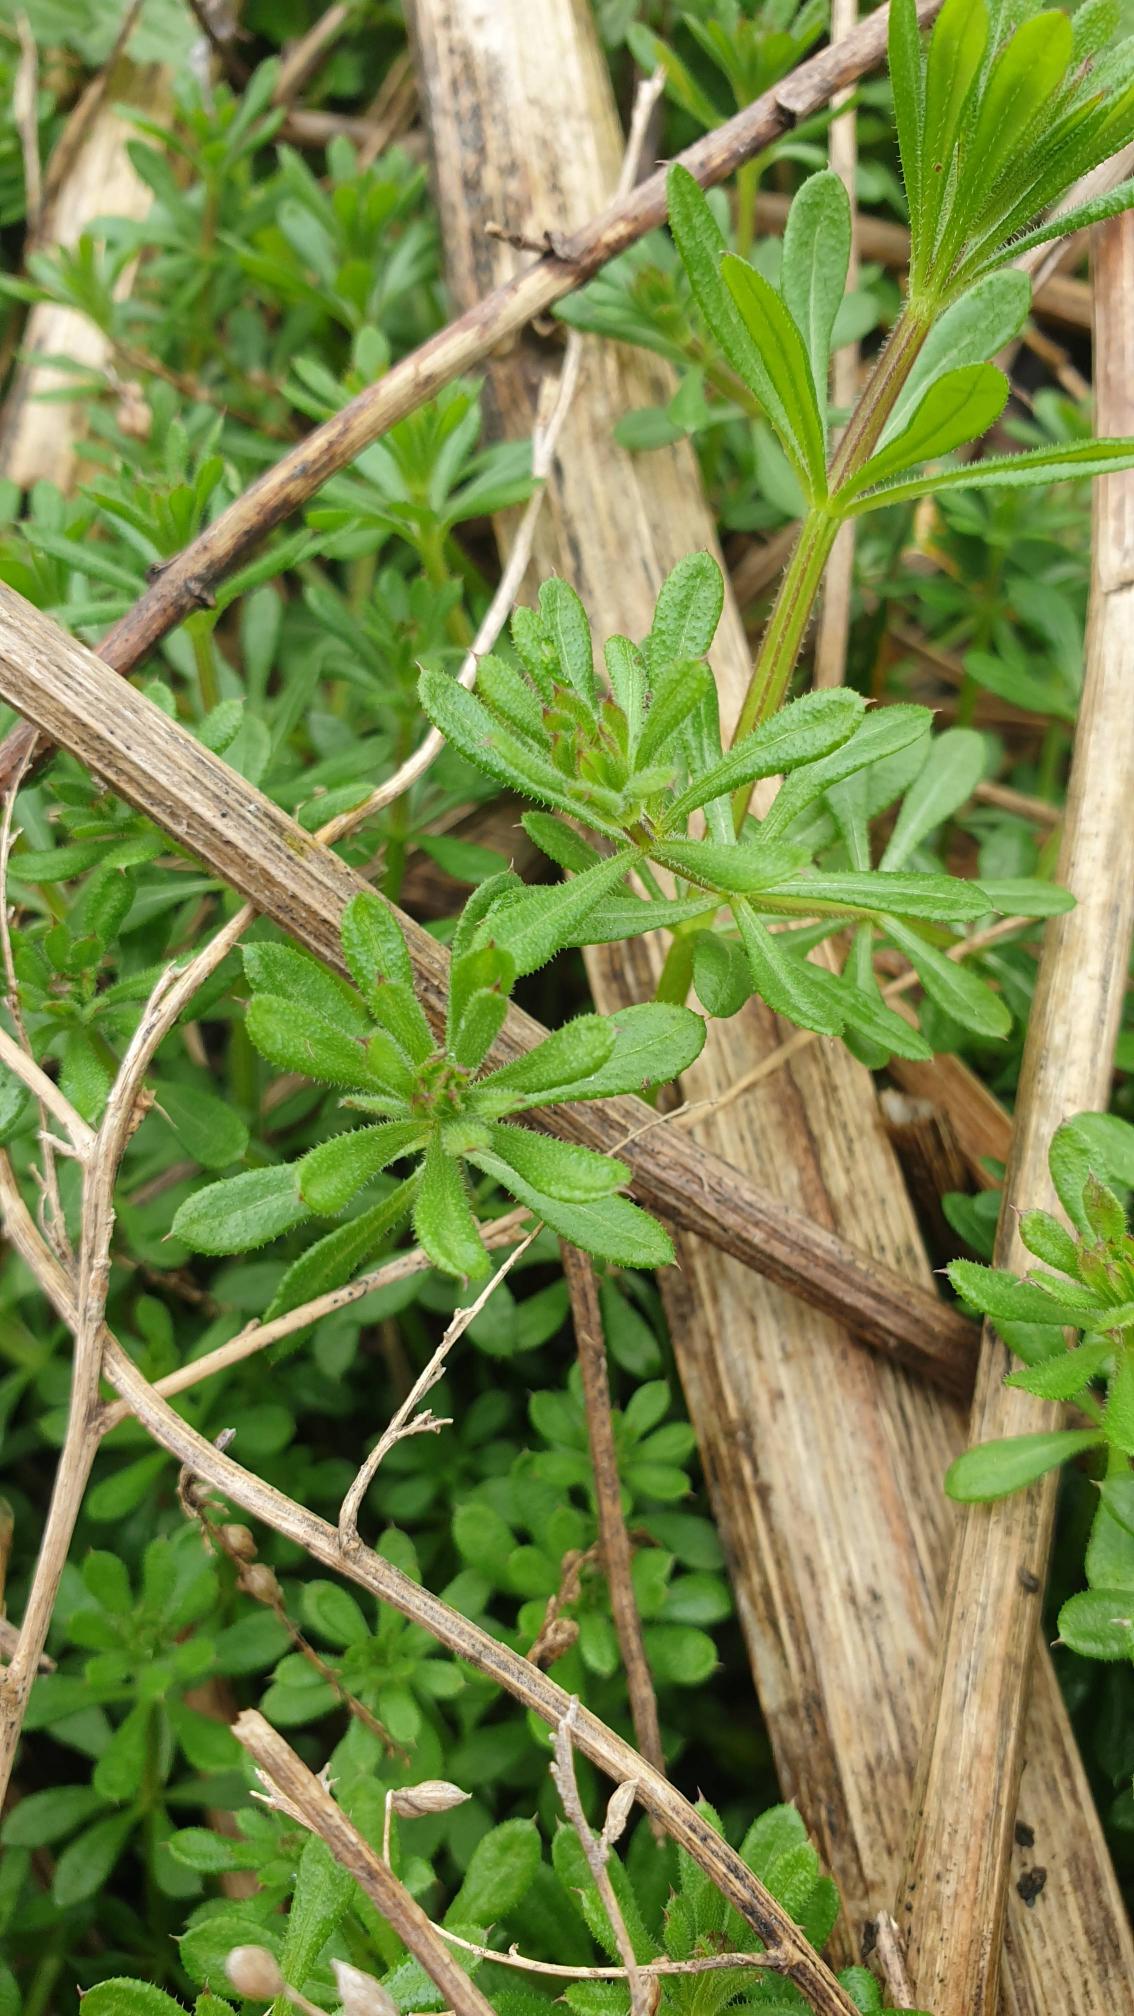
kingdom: Plantae
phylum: Tracheophyta
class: Magnoliopsida
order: Gentianales
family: Rubiaceae
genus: Galium
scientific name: Galium aparine
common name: Burre-snerre
